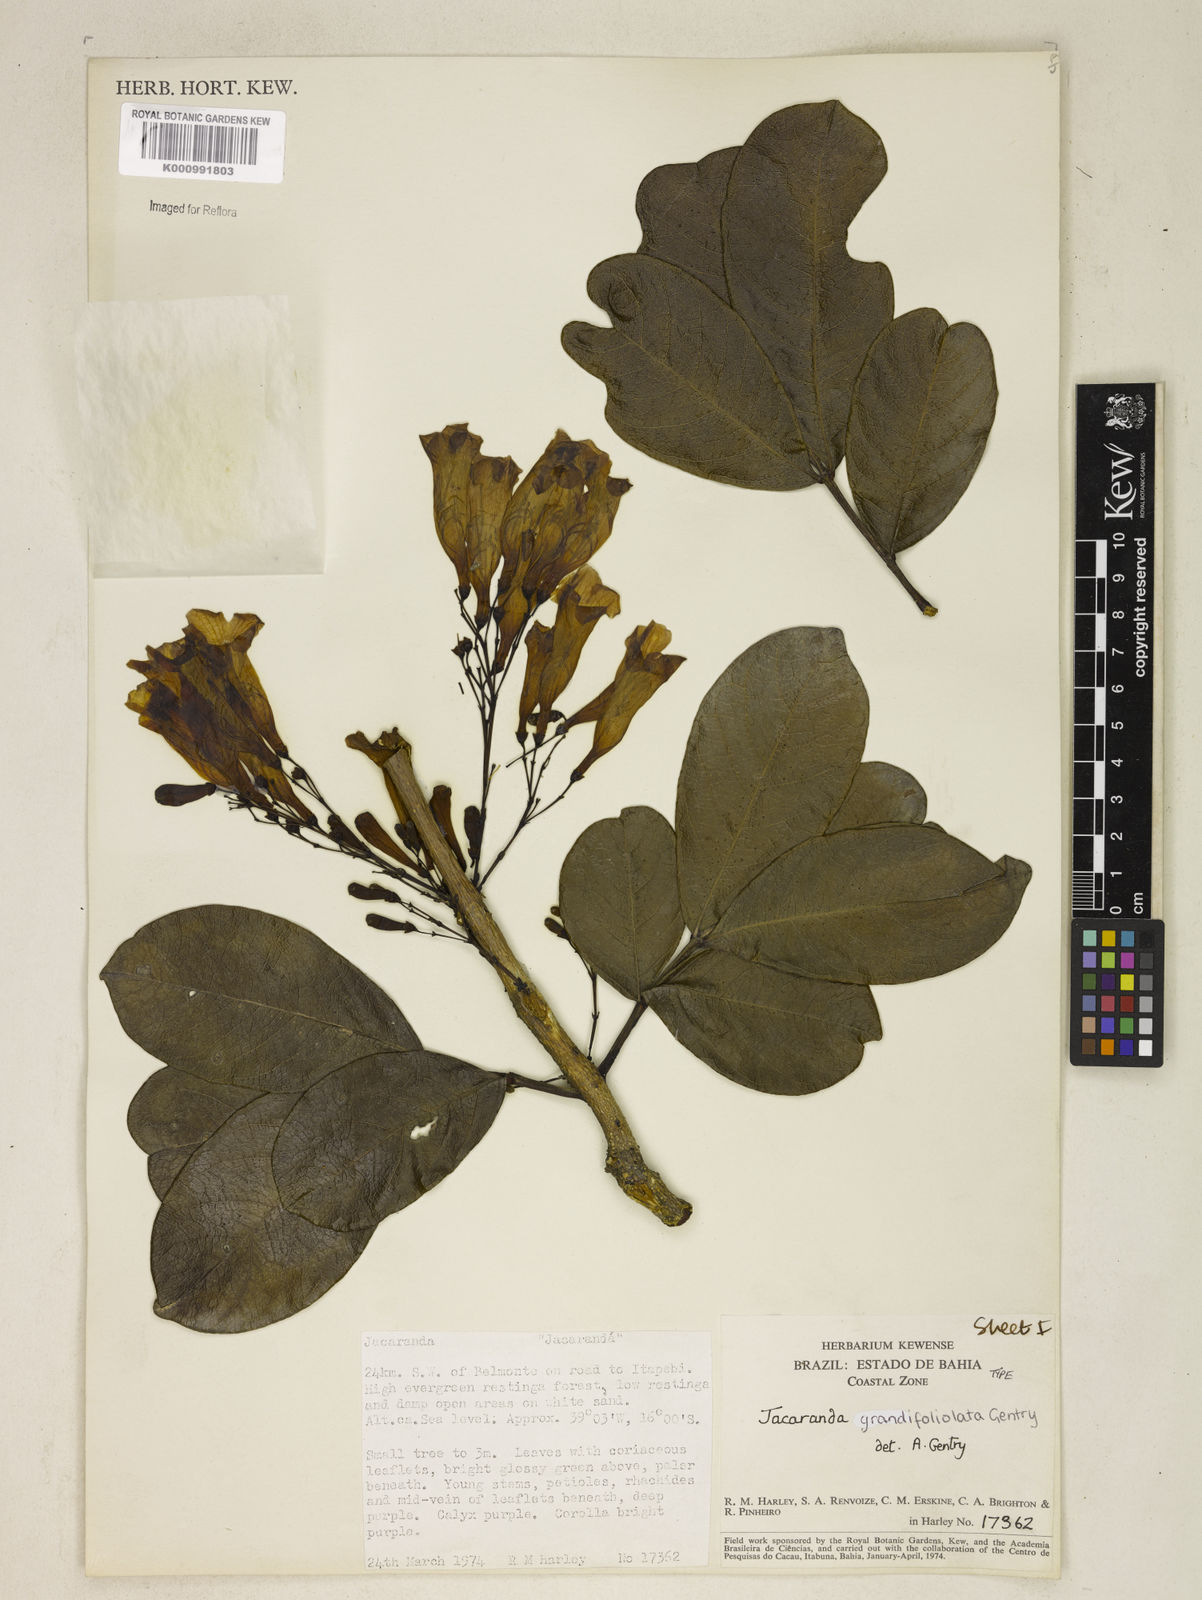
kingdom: Plantae
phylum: Tracheophyta
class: Magnoliopsida
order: Lamiales
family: Bignoniaceae
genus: Jacaranda
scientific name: Jacaranda grandifoliolata
